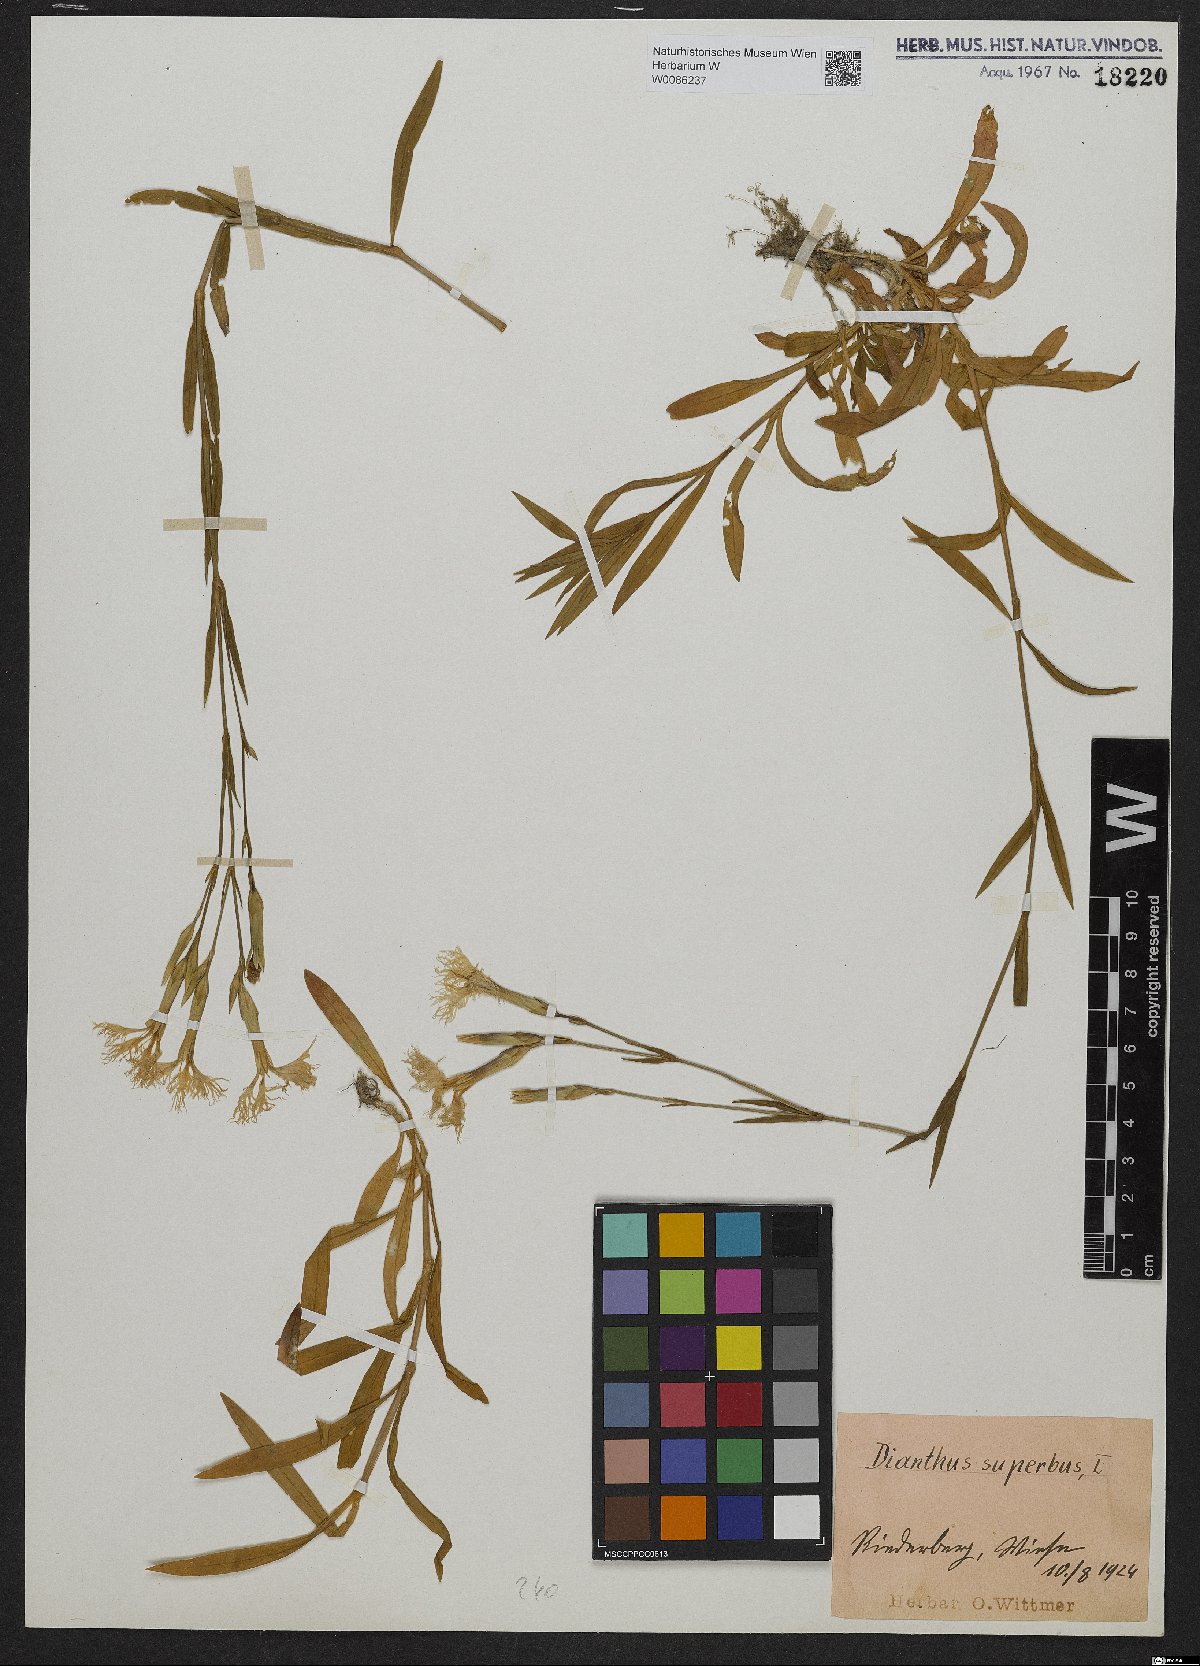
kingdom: Plantae
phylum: Tracheophyta
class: Magnoliopsida
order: Caryophyllales
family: Caryophyllaceae
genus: Dianthus
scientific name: Dianthus superbus
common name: Fringed pink
